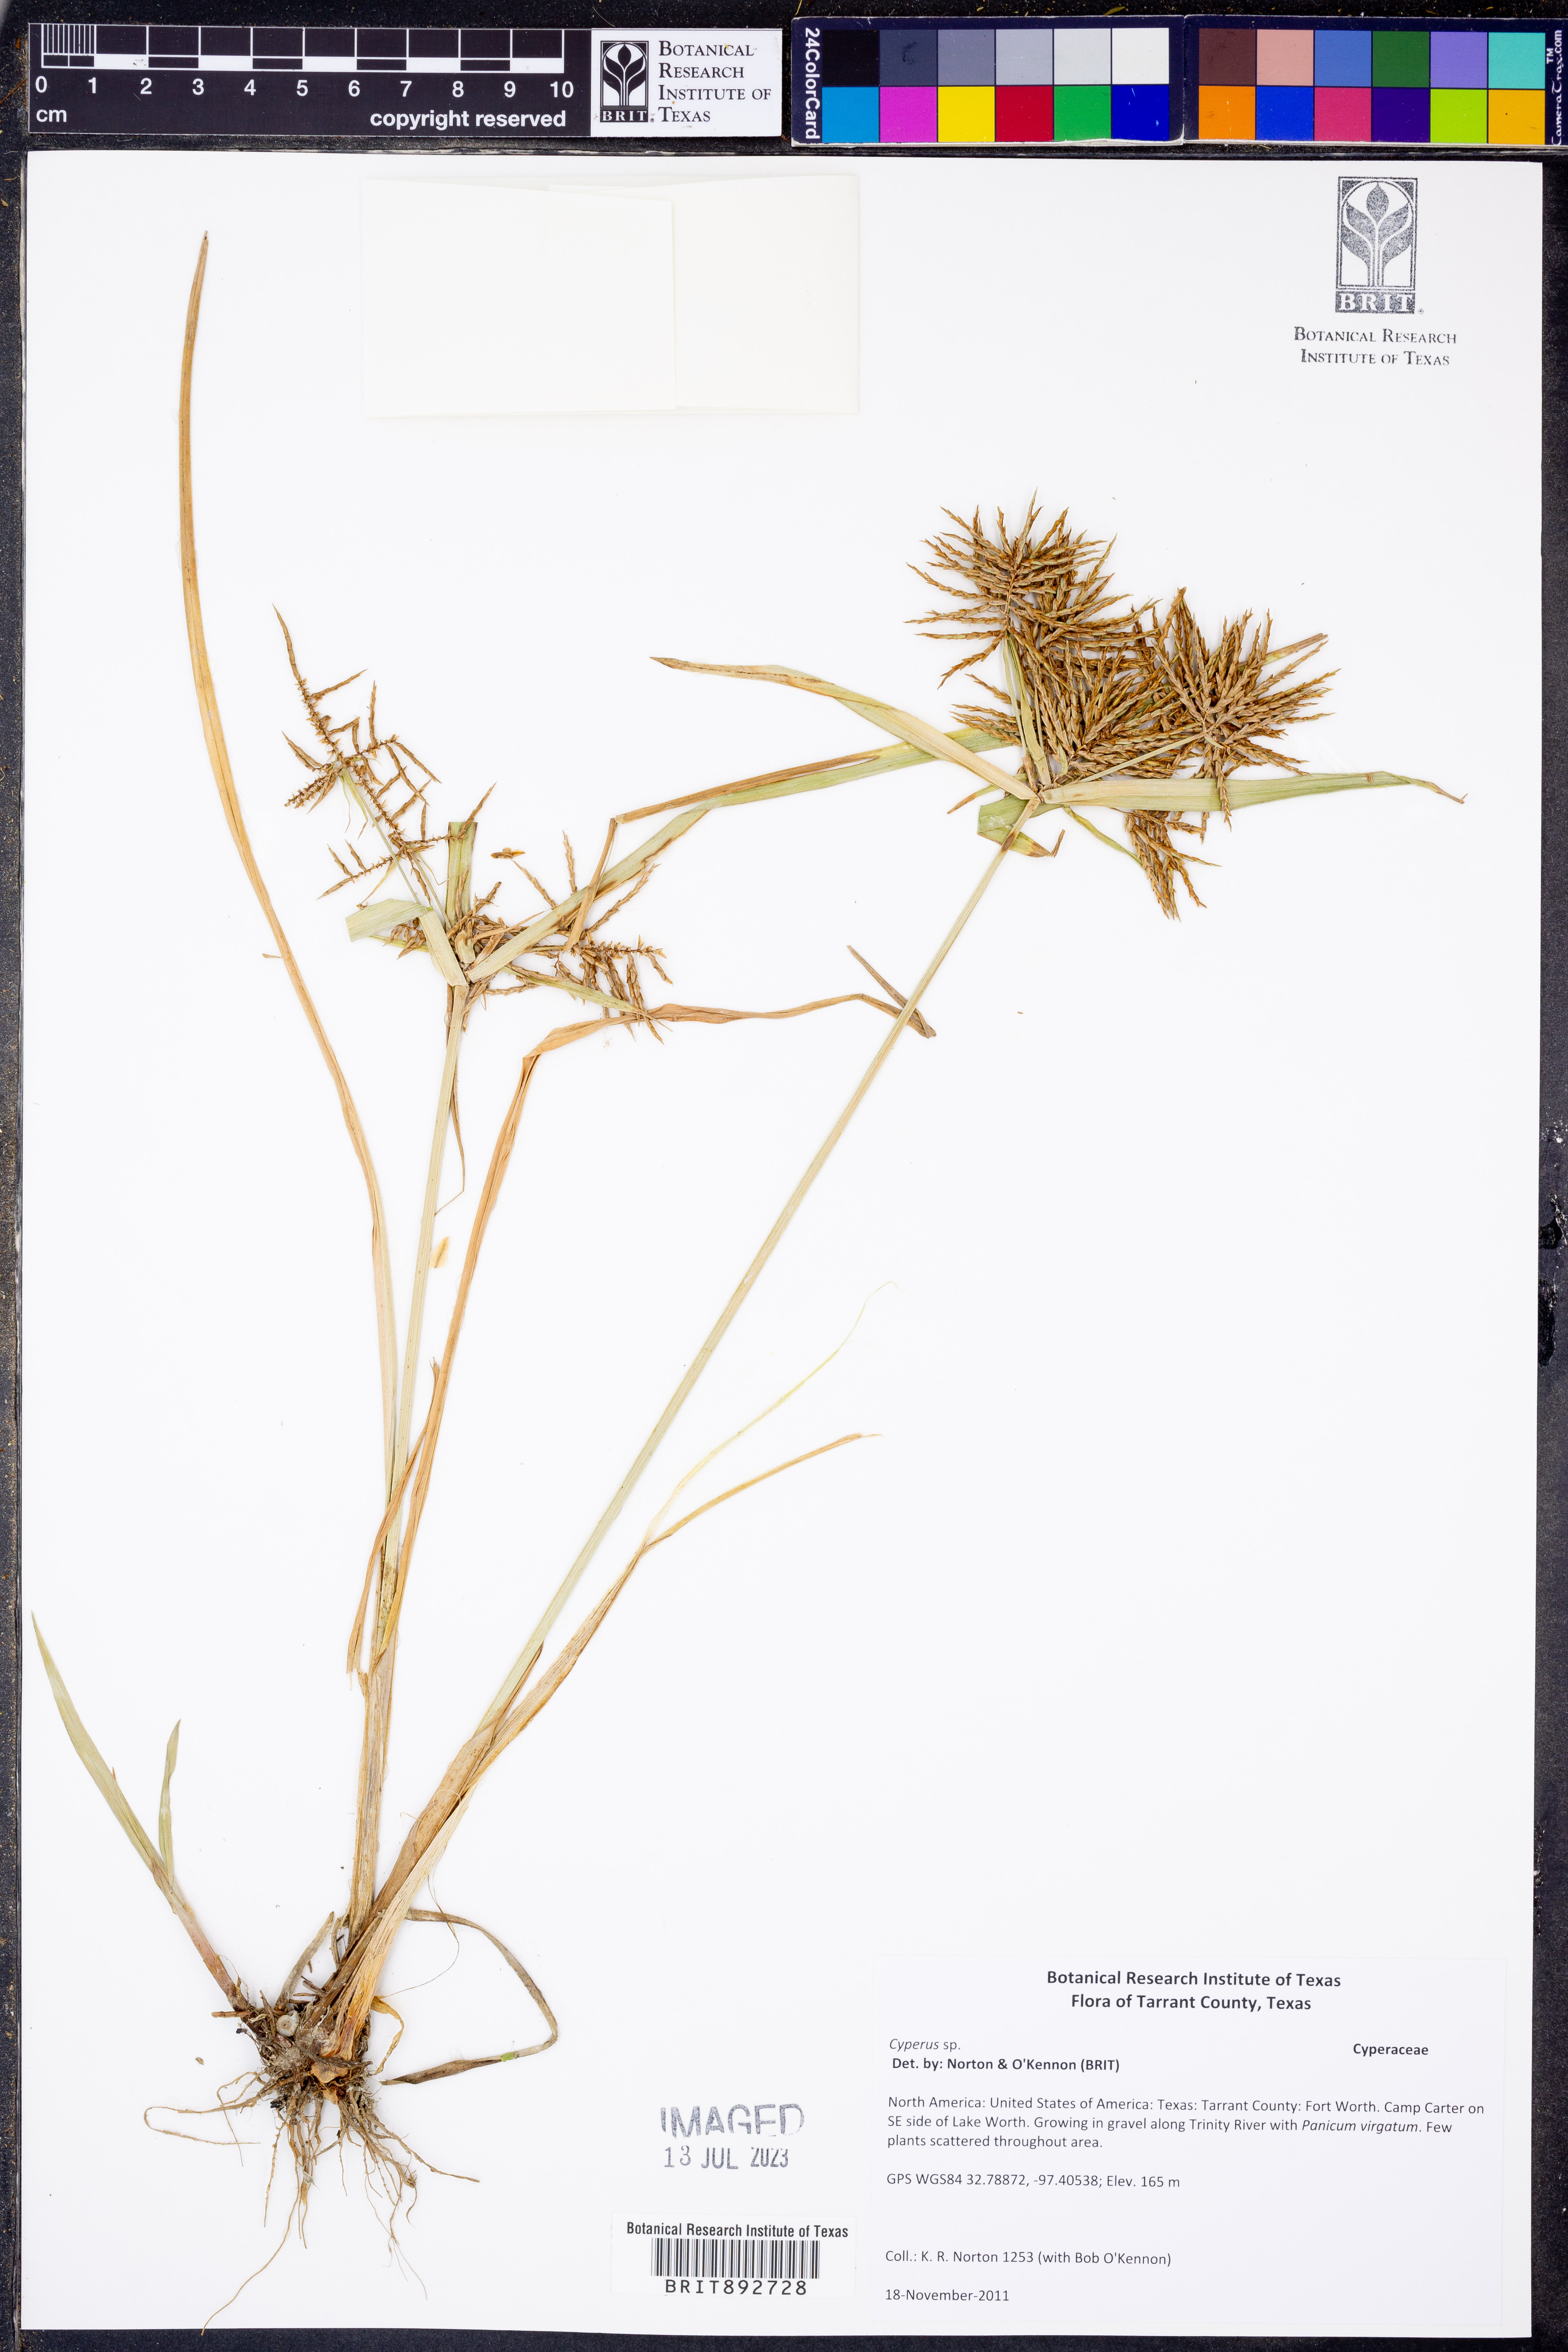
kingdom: Plantae
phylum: Tracheophyta
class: Liliopsida
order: Poales
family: Cyperaceae
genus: Cyperus
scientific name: Cyperus
